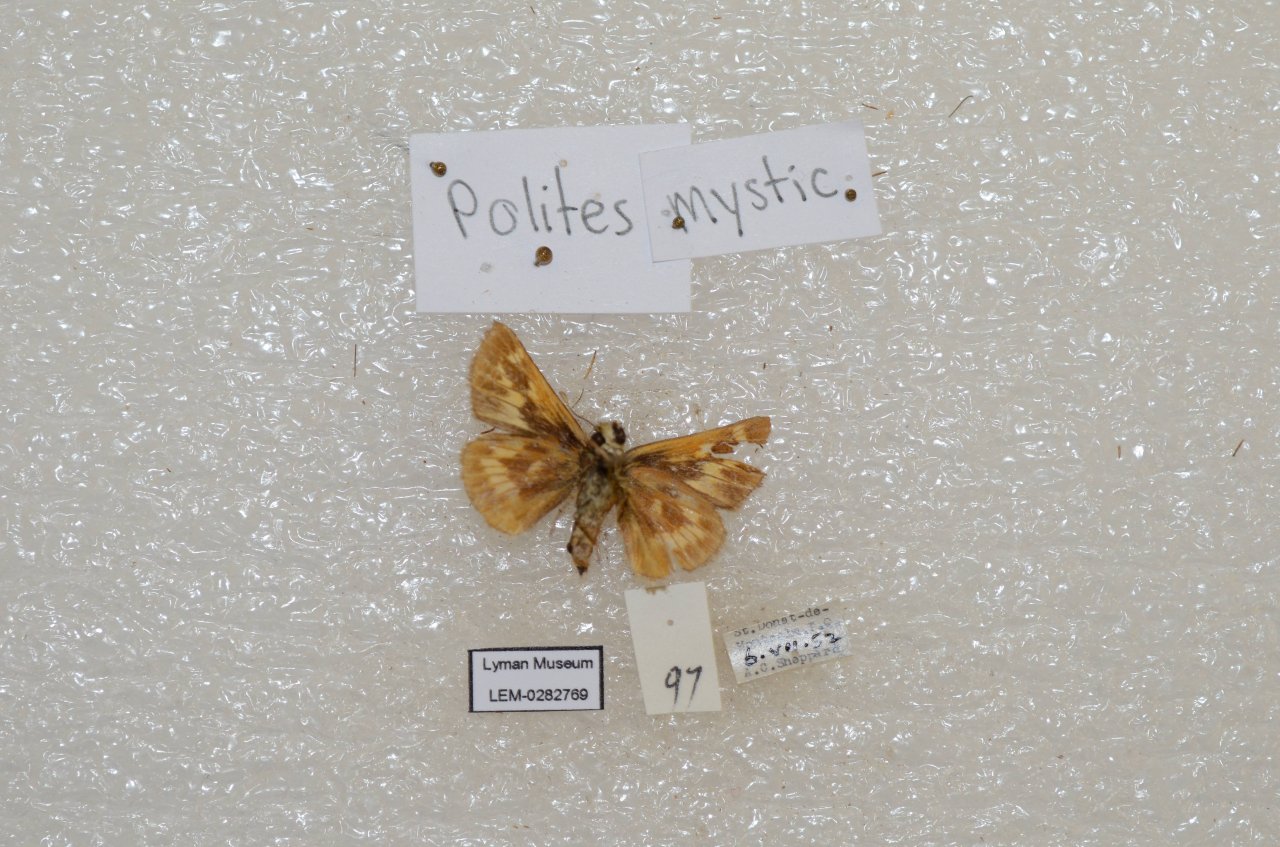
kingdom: Animalia
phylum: Arthropoda
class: Insecta
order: Lepidoptera
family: Hesperiidae
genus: Polites
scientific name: Polites
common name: Long Dash Skipper
